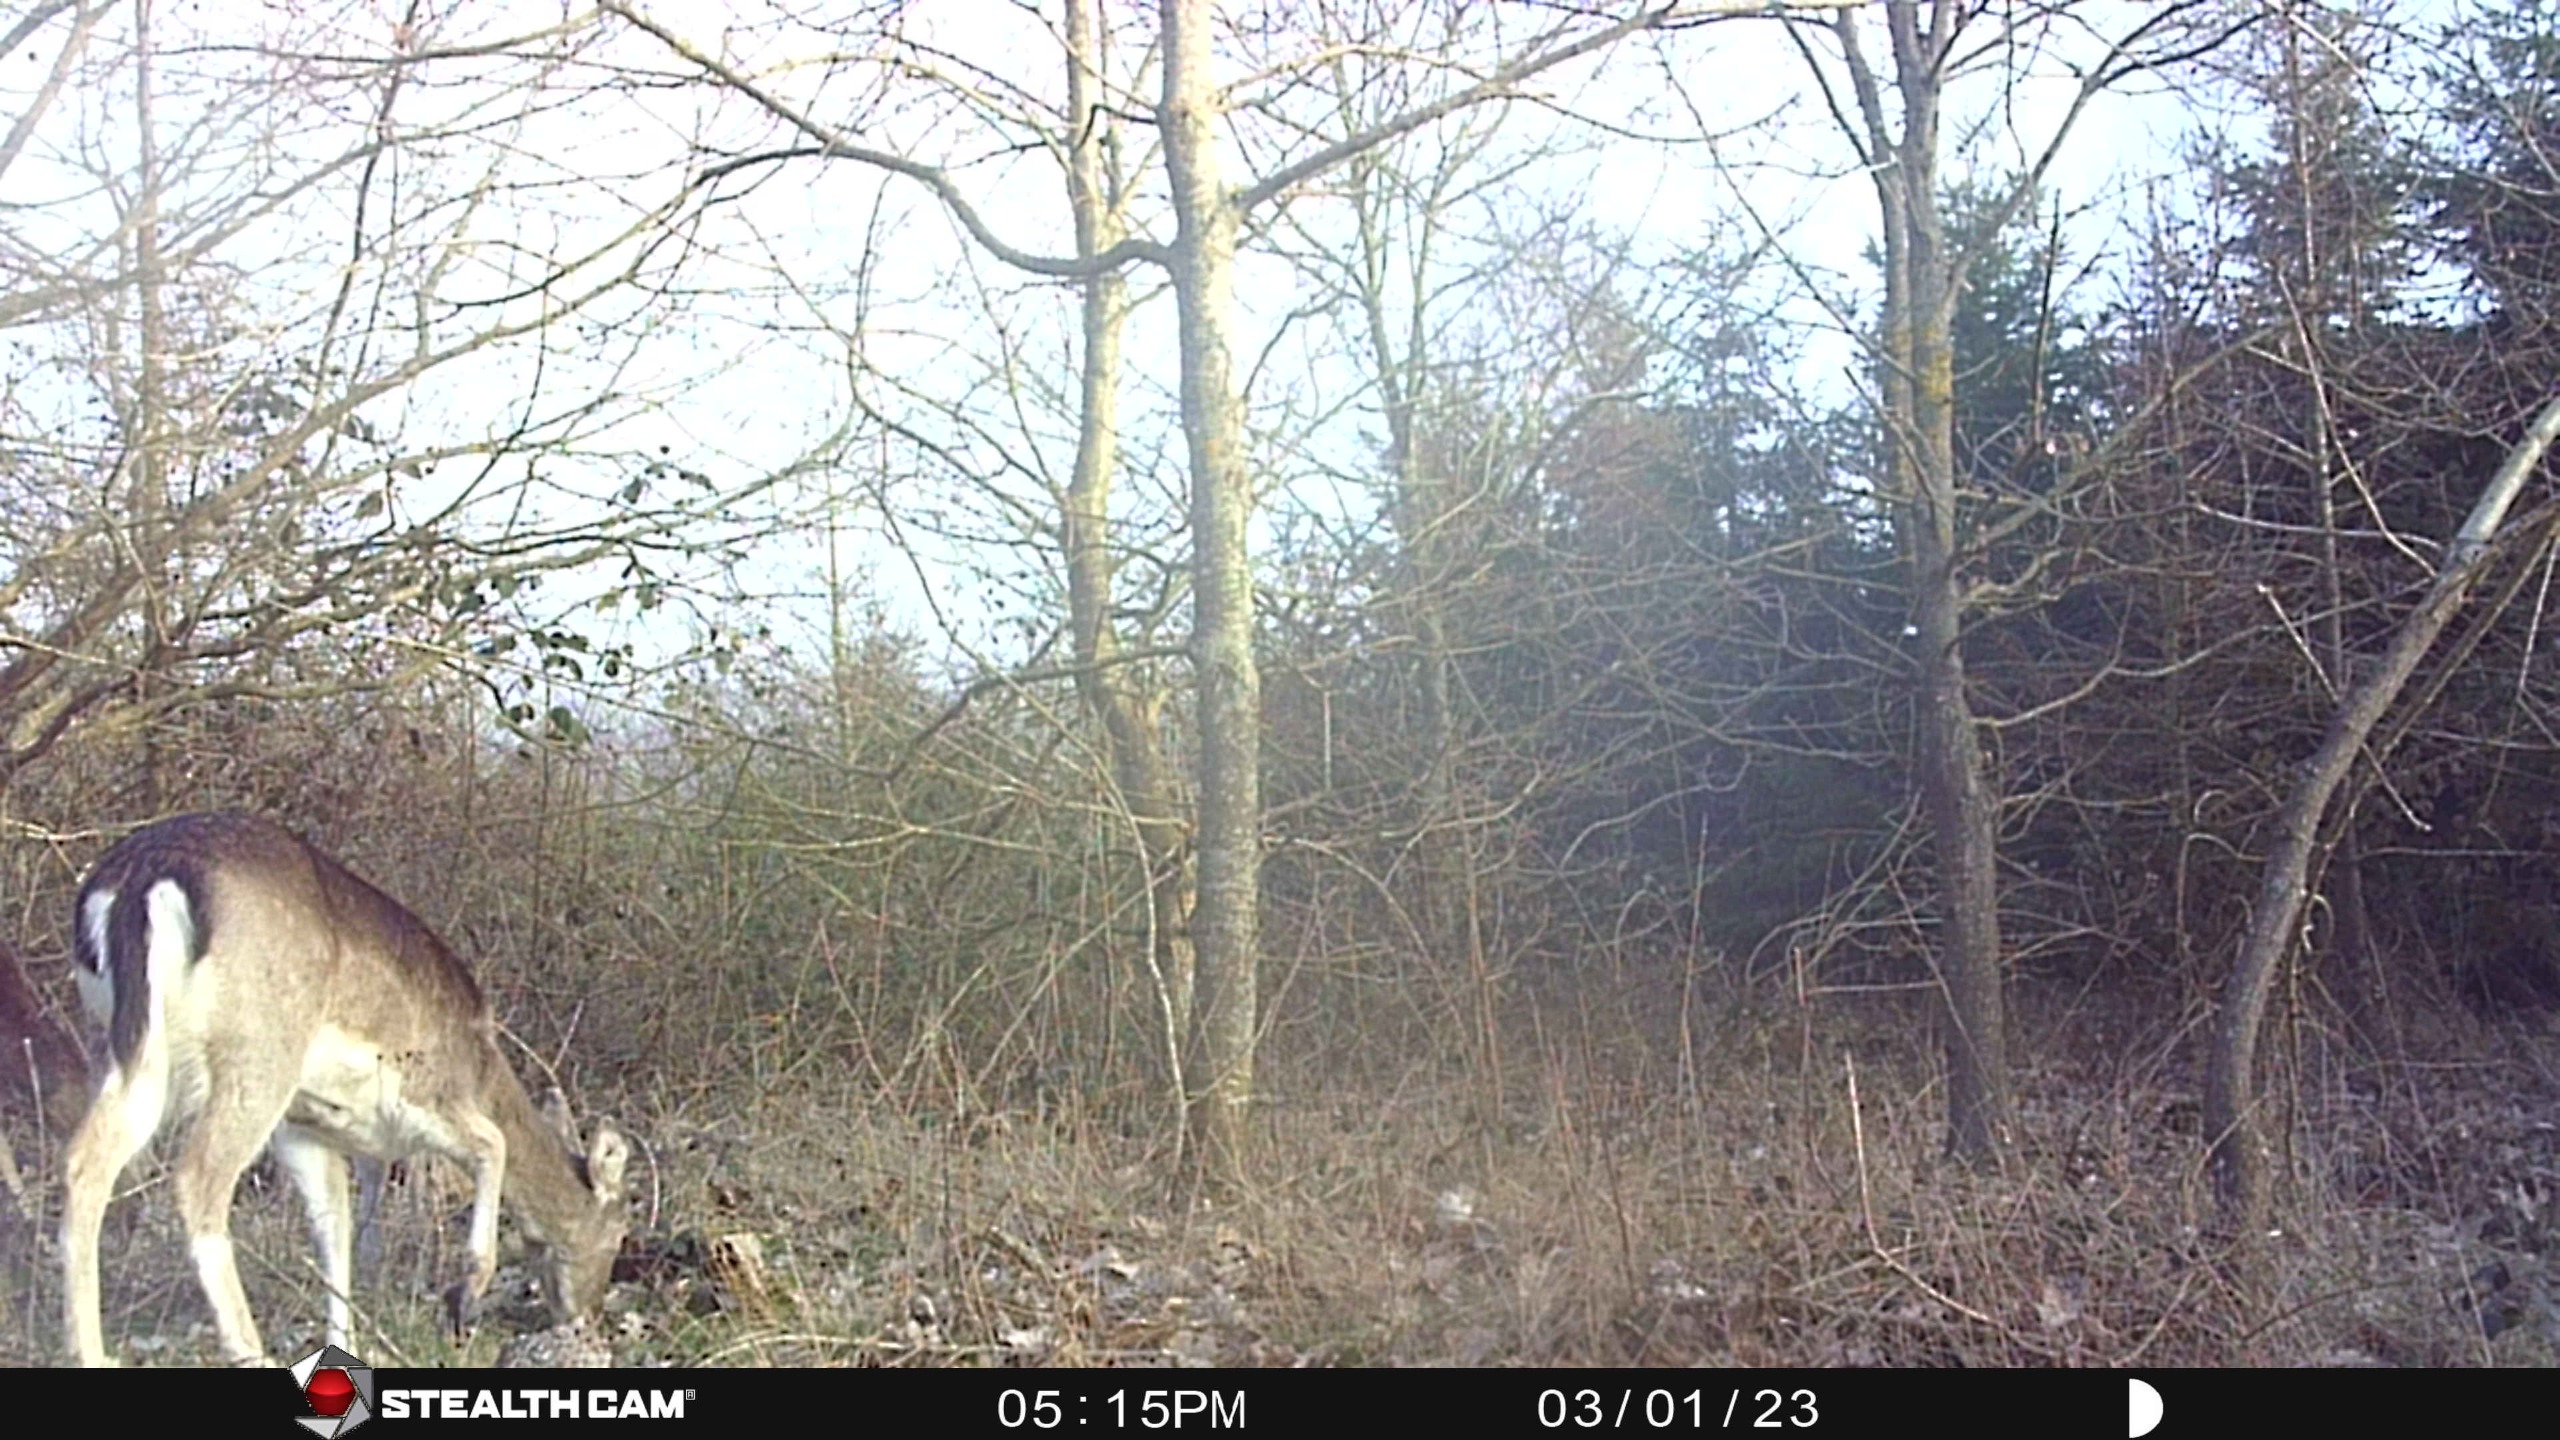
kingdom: Animalia
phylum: Chordata
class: Mammalia
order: Artiodactyla
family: Cervidae
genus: Dama
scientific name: Dama dama
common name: Dådyr
